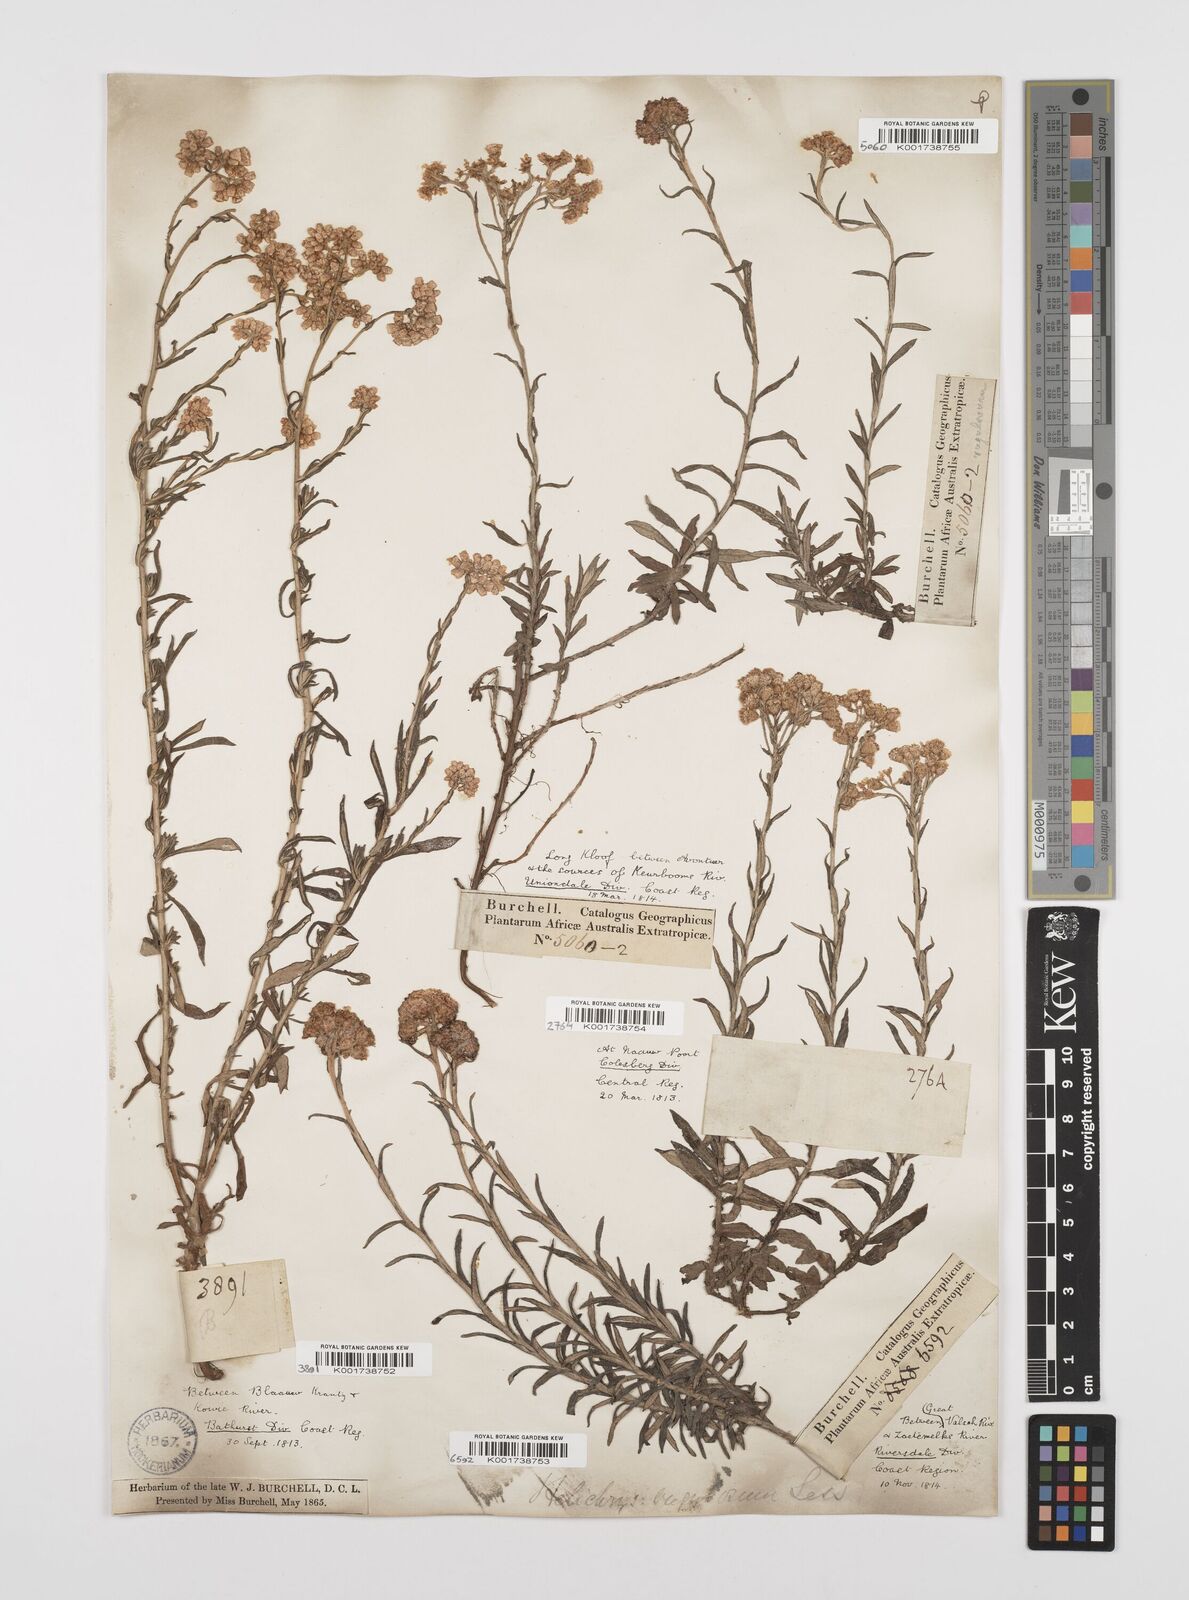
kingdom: Plantae
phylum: Tracheophyta
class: Magnoliopsida
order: Asterales
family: Asteraceae
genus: Helichrysum
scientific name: Helichrysum rugulosum
